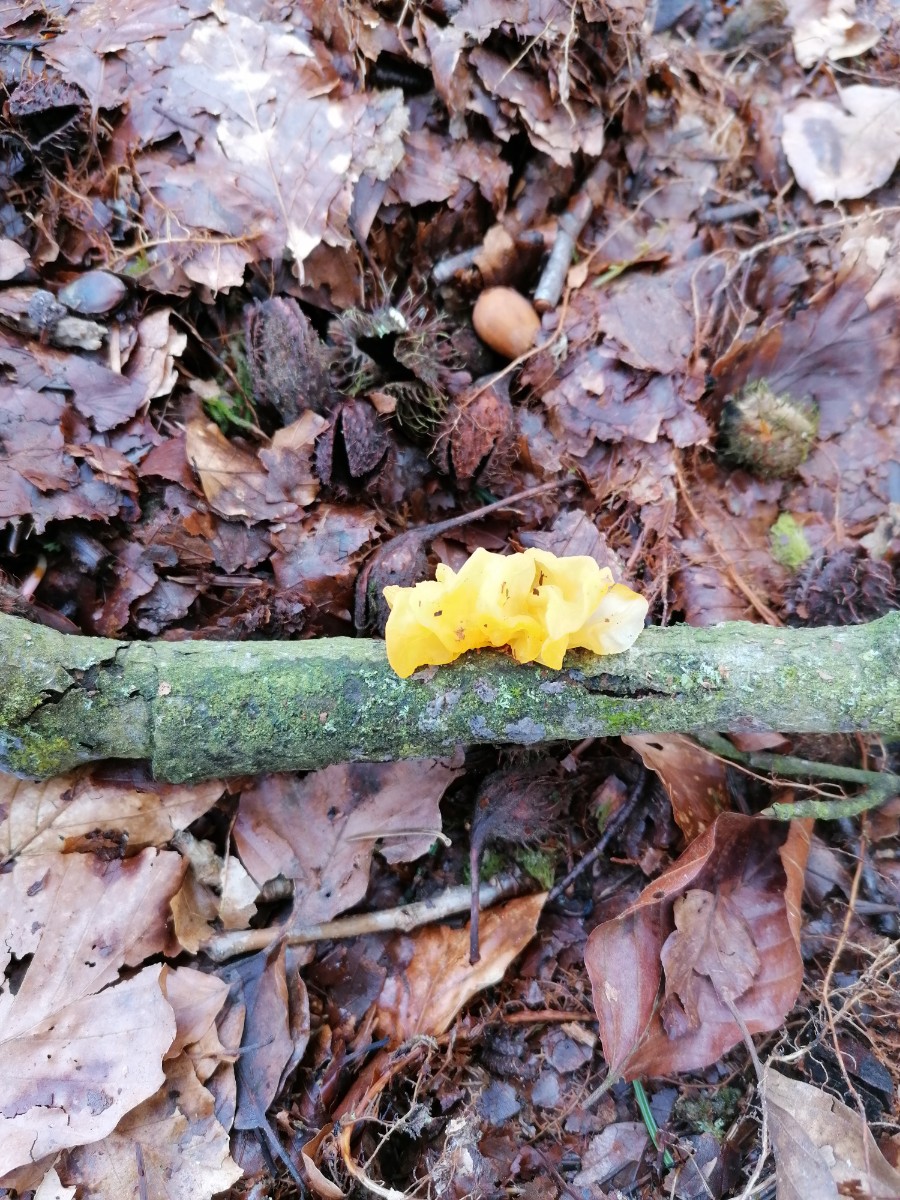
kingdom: Fungi
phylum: Basidiomycota
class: Tremellomycetes
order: Tremellales
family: Tremellaceae
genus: Tremella
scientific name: Tremella mesenterica
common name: gul bævresvamp
